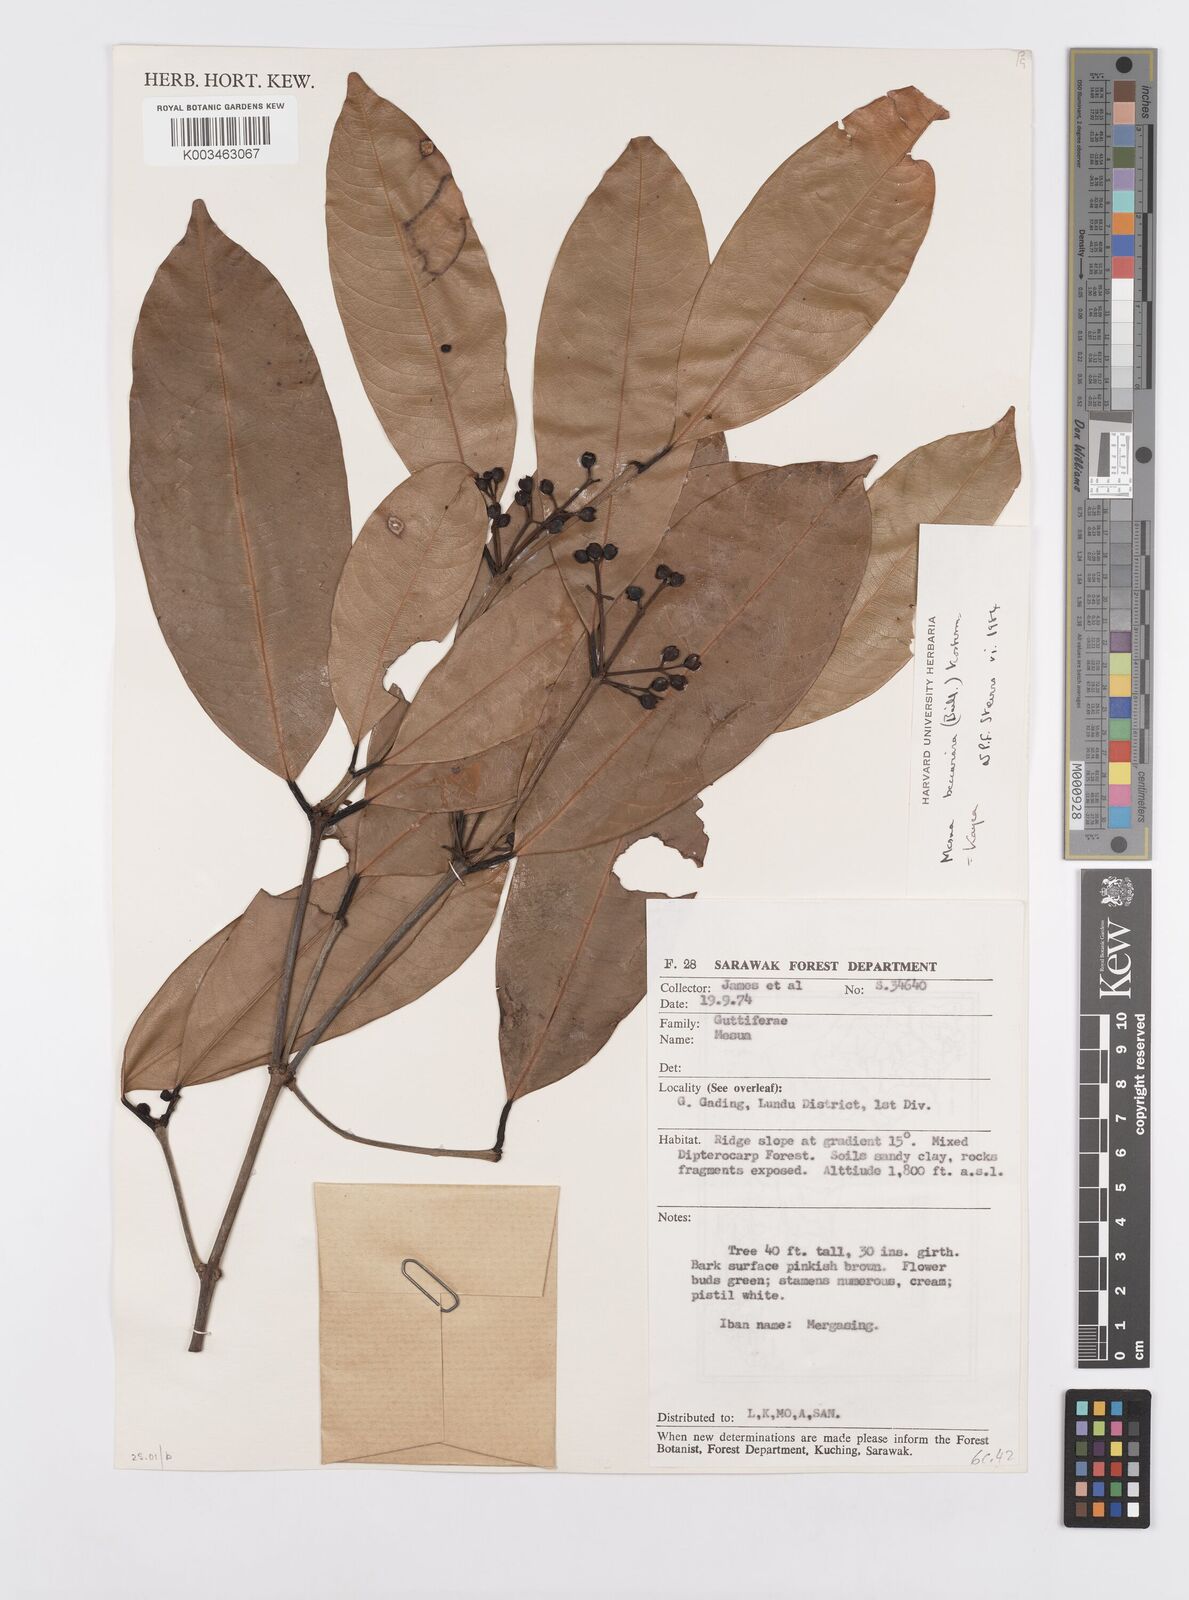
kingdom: Plantae
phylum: Tracheophyta
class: Magnoliopsida
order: Malpighiales
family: Calophyllaceae
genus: Kayea
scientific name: Kayea beccariana
